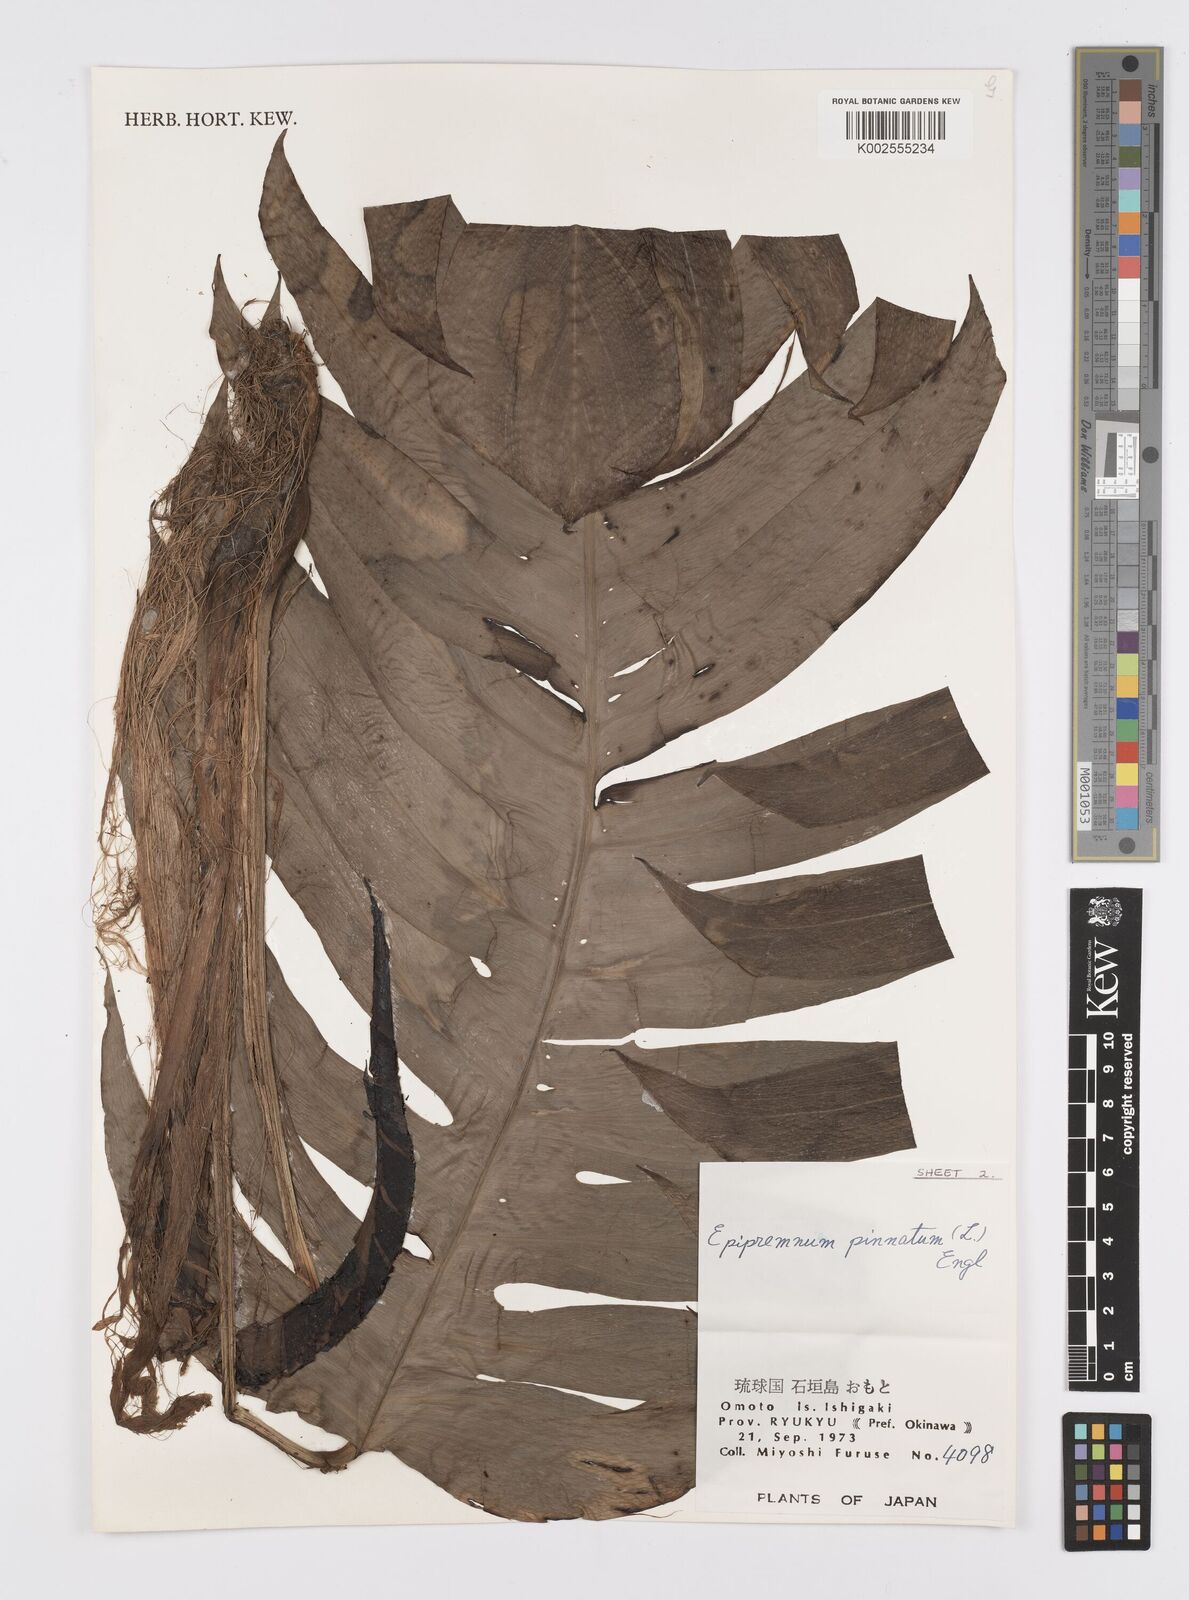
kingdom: Plantae
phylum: Tracheophyta
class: Liliopsida
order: Alismatales
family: Araceae
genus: Epipremnum
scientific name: Epipremnum pinnatum
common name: Centipede tongavine
